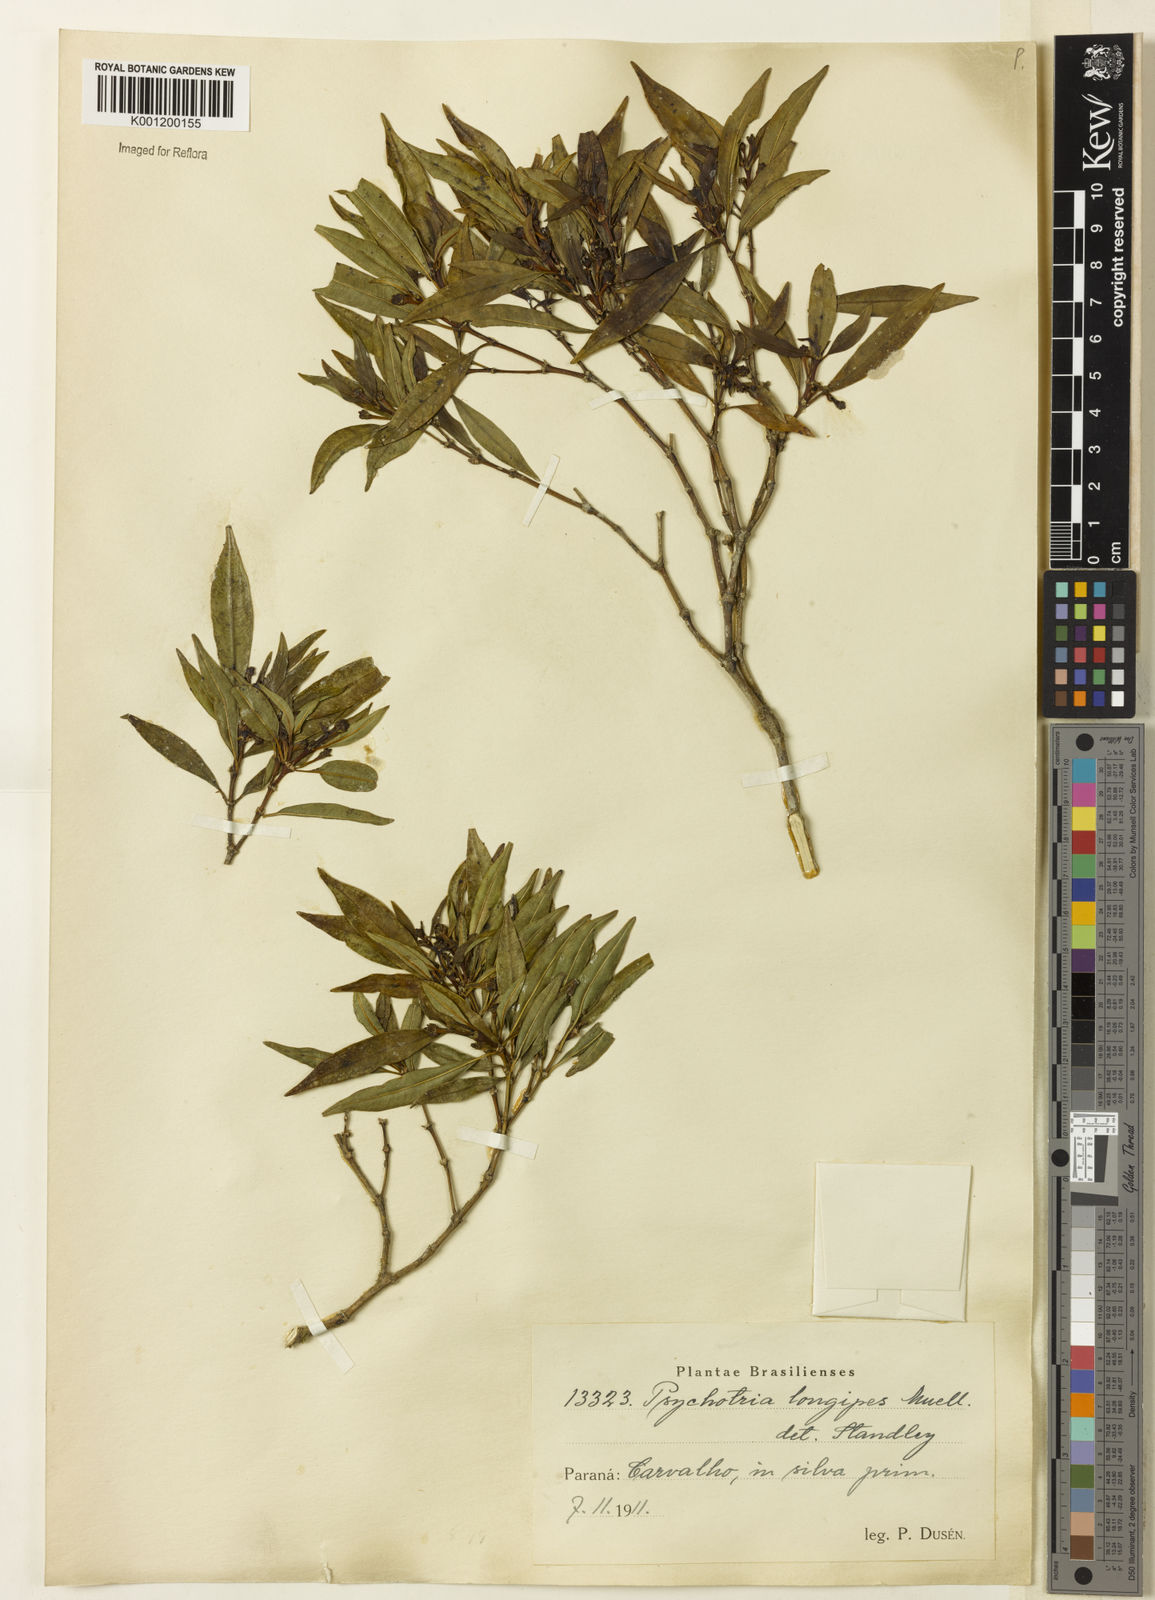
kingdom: Plantae
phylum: Tracheophyta
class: Magnoliopsida
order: Gentianales
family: Rubiaceae
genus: Rudgea
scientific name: Rudgea sessilis
